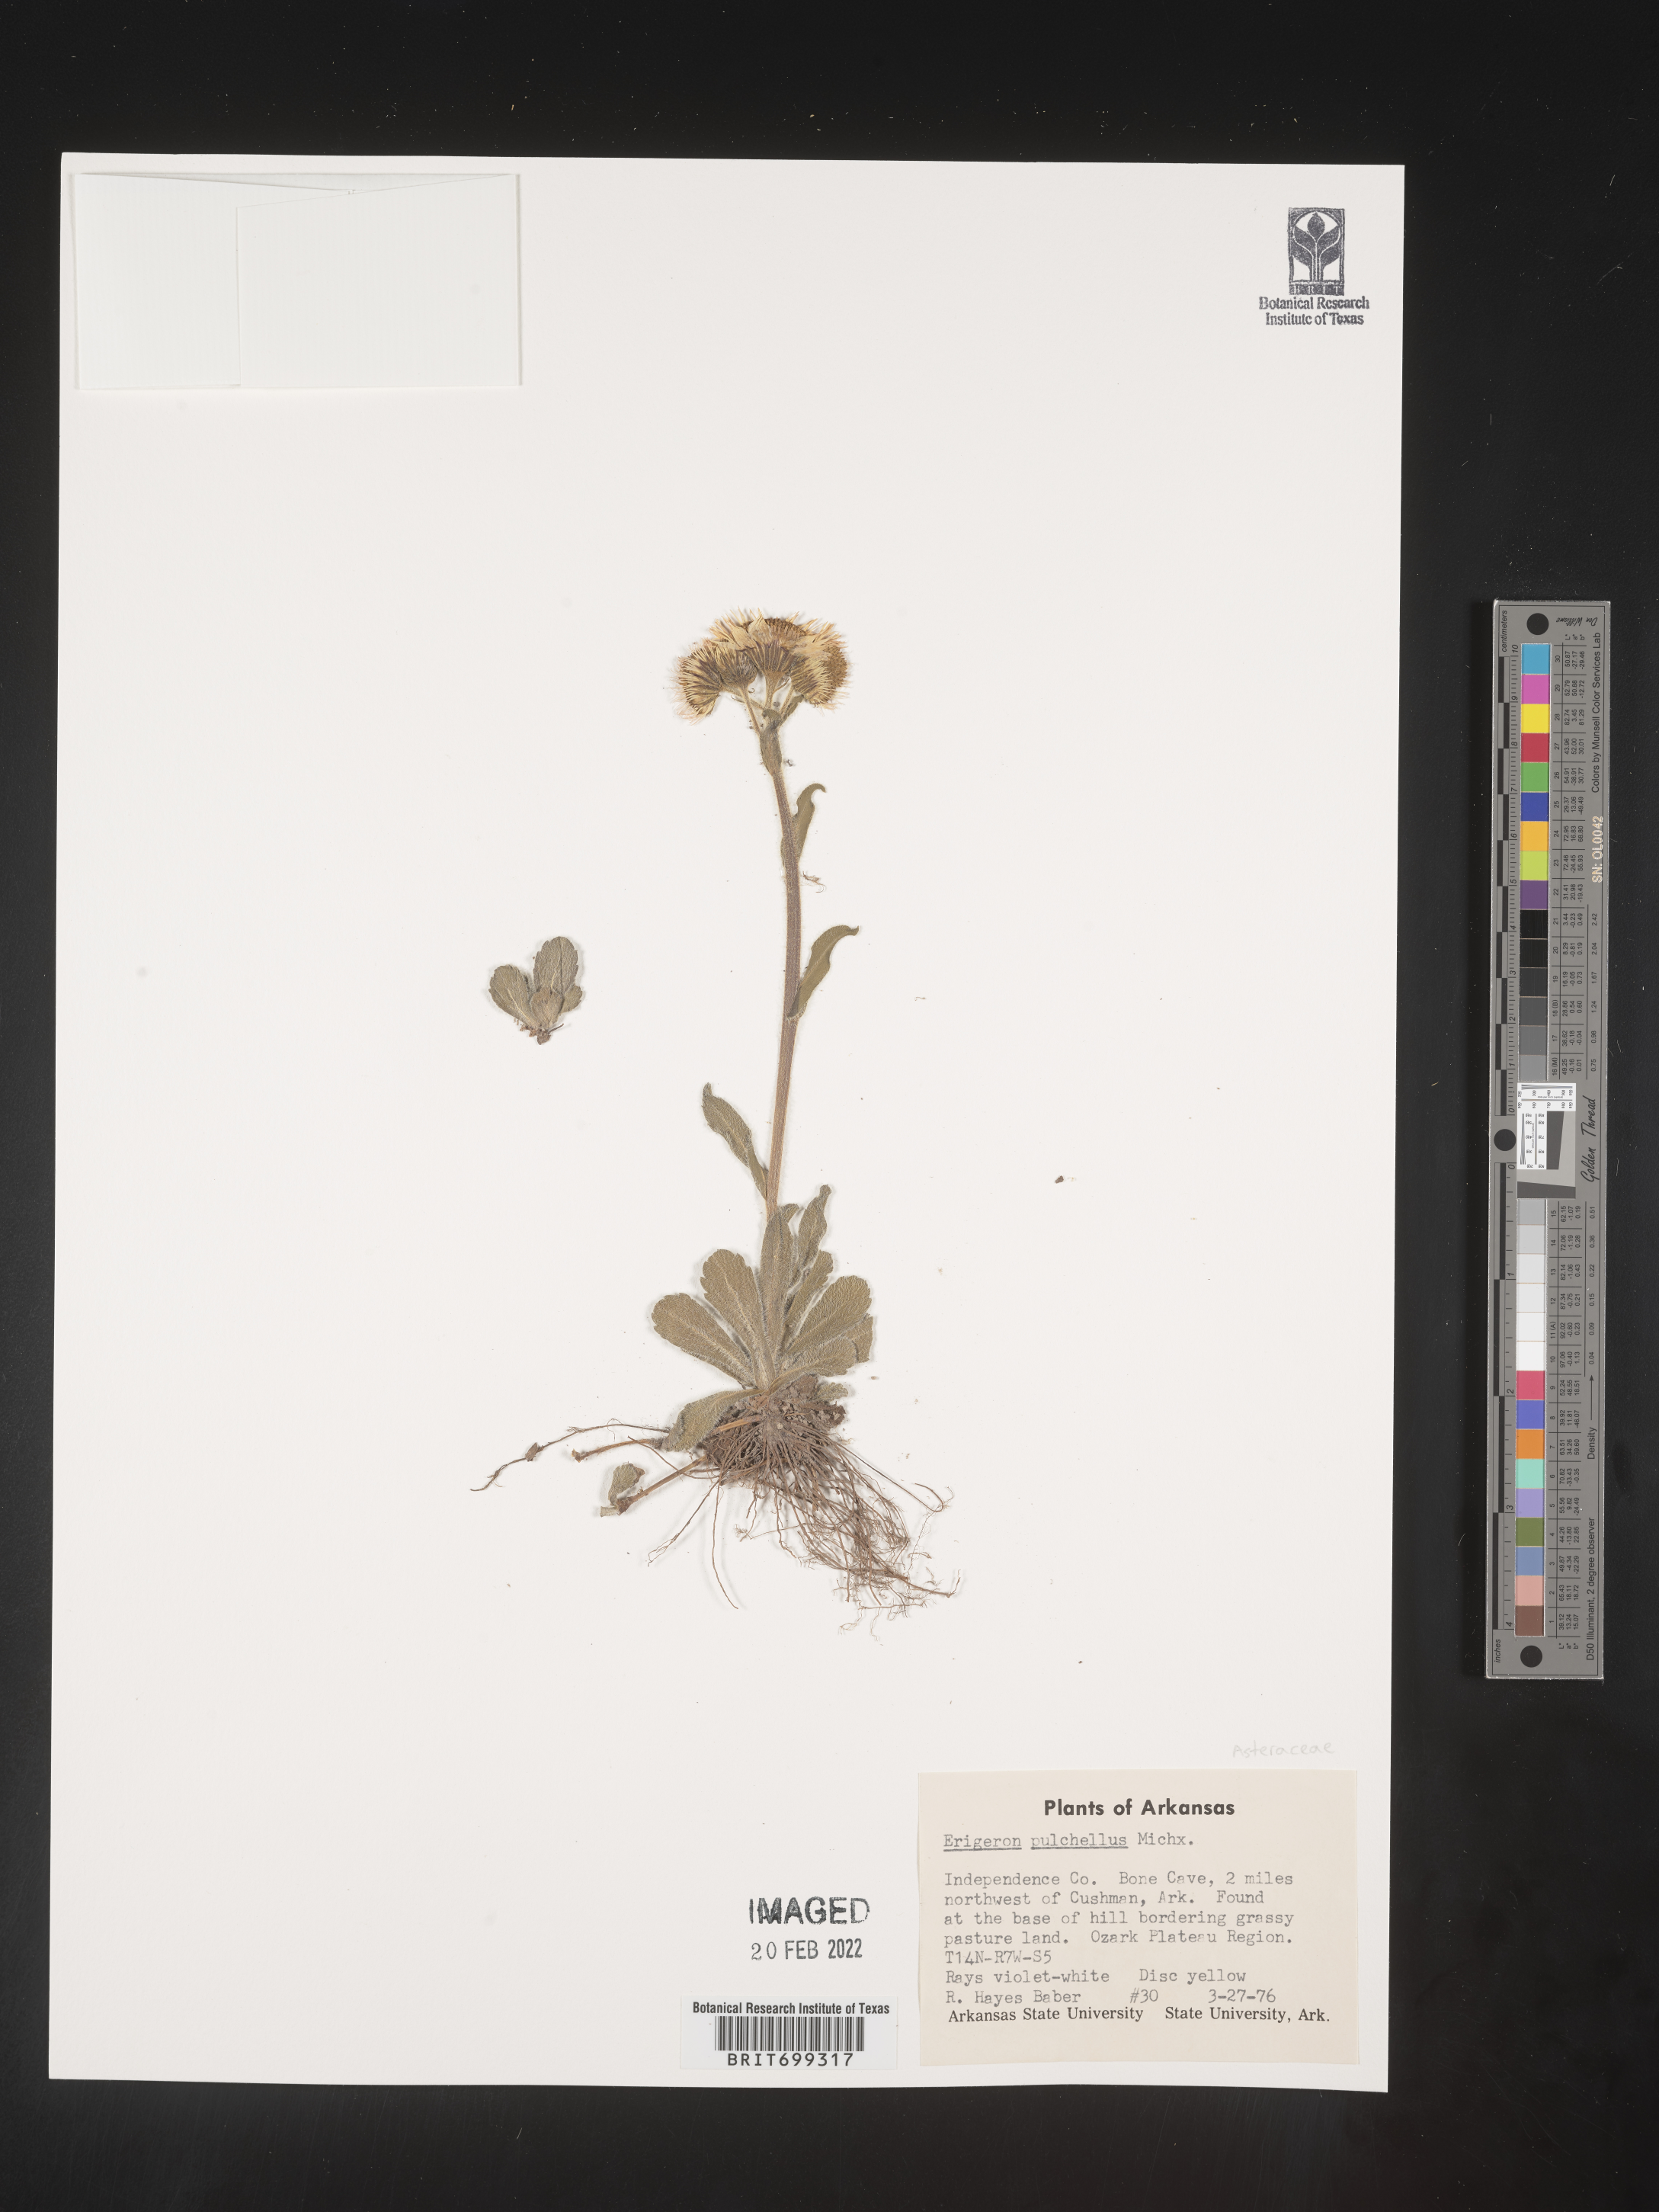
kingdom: Plantae
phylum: Tracheophyta
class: Magnoliopsida
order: Asterales
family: Asteraceae
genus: Erigeron
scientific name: Erigeron pulchellus
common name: Hairy fleabane
